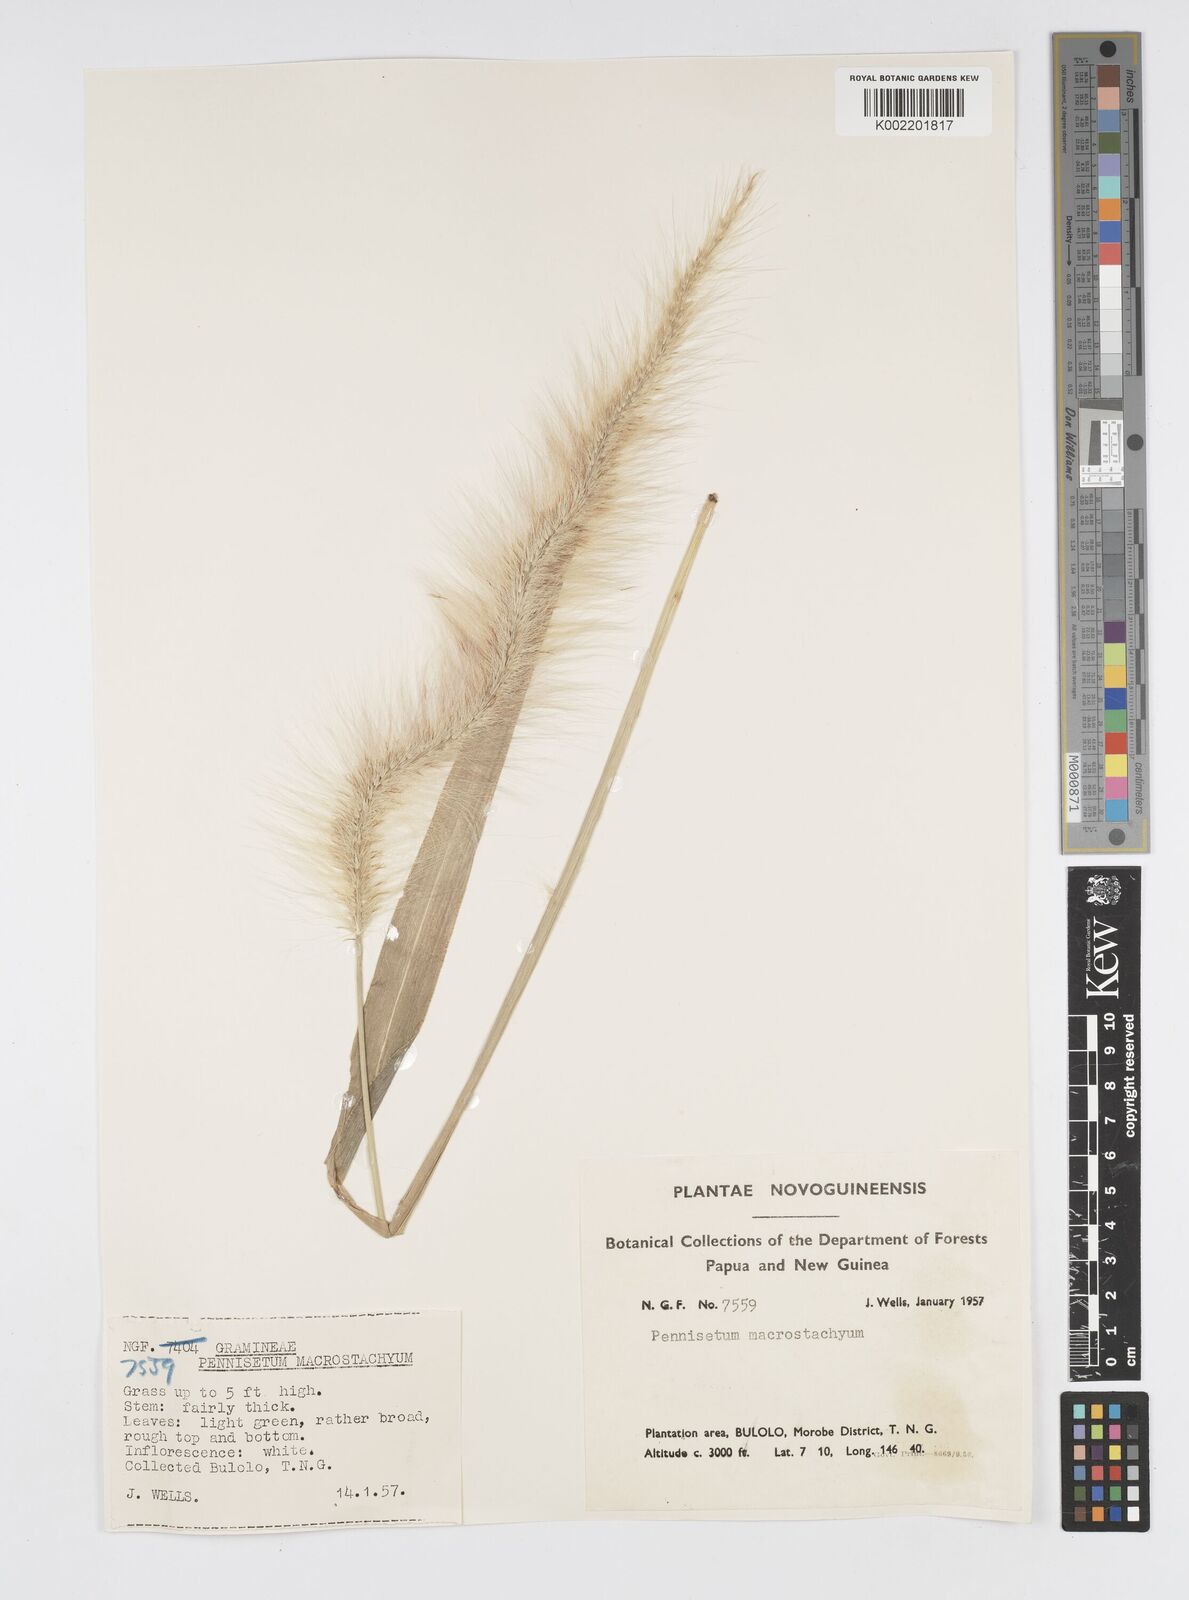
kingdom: Plantae
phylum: Tracheophyta
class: Liliopsida
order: Poales
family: Poaceae
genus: Cenchrus
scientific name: Cenchrus purpureus
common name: Elephant grass
